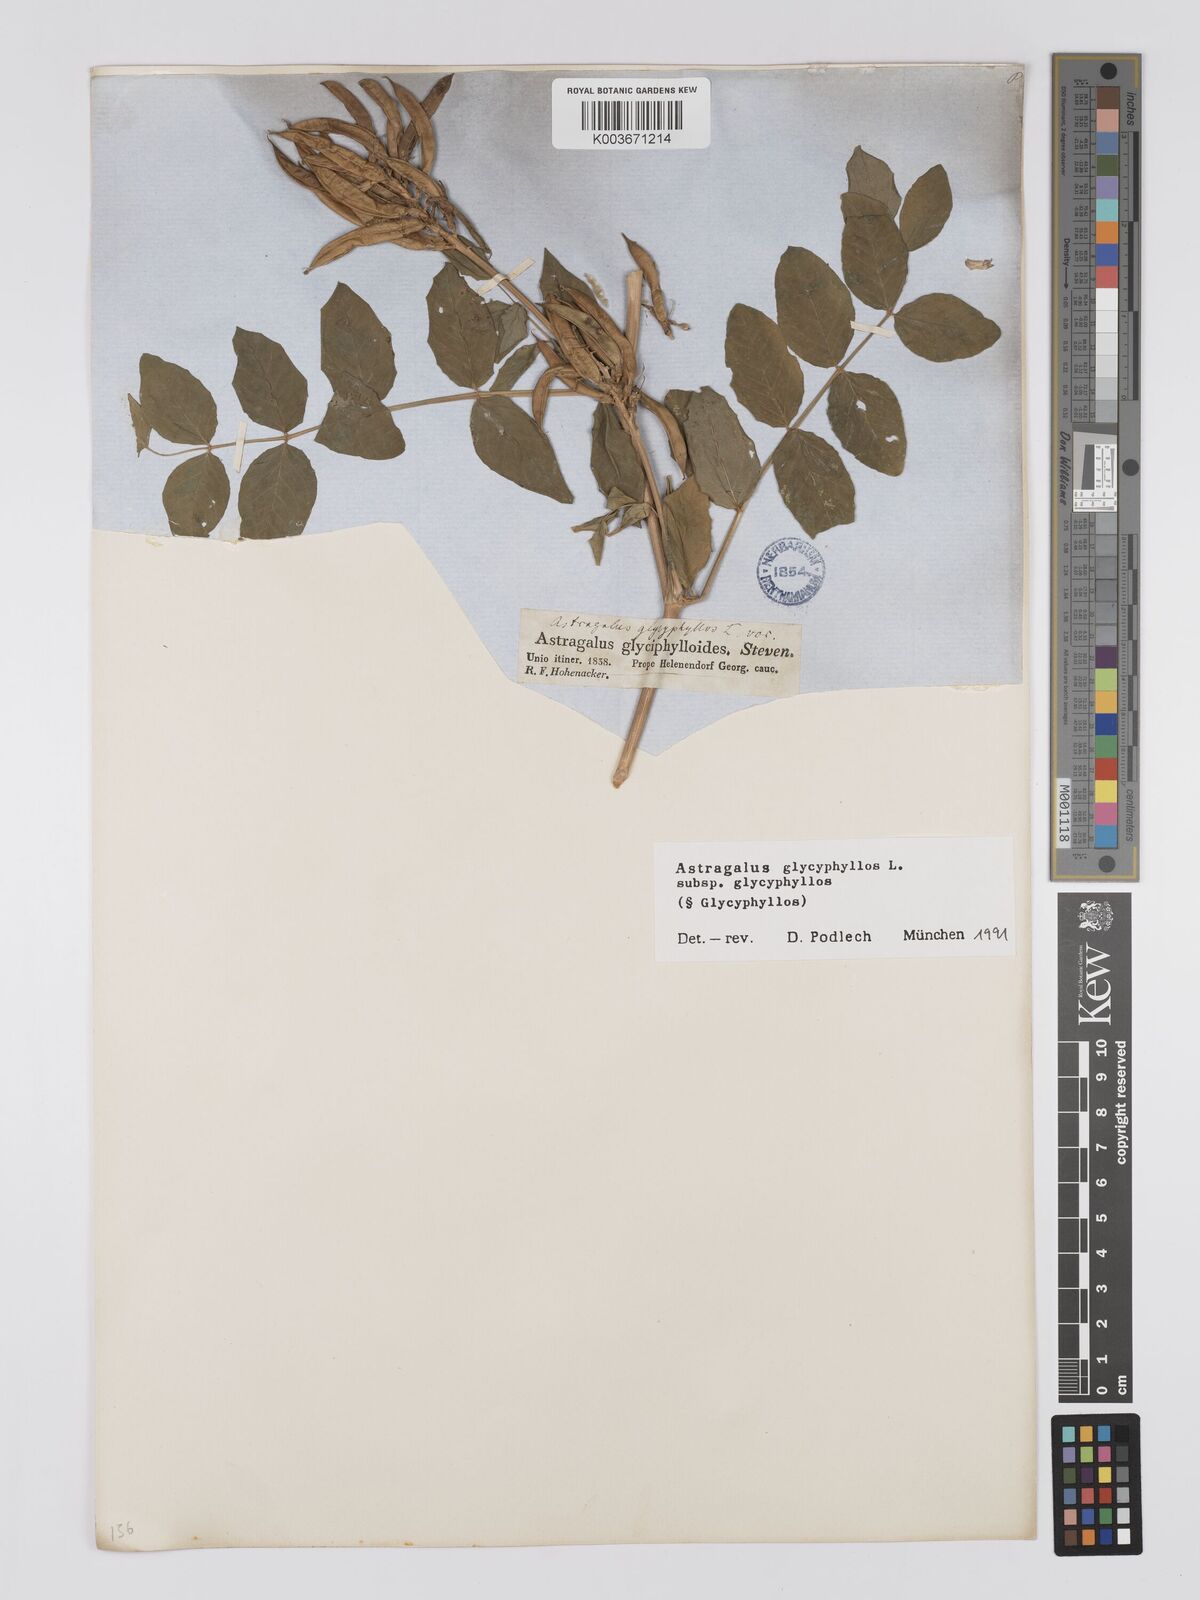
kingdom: Plantae
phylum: Tracheophyta
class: Magnoliopsida
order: Fabales
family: Fabaceae
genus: Astragalus
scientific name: Astragalus glycyphyllos
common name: Wild liquorice
